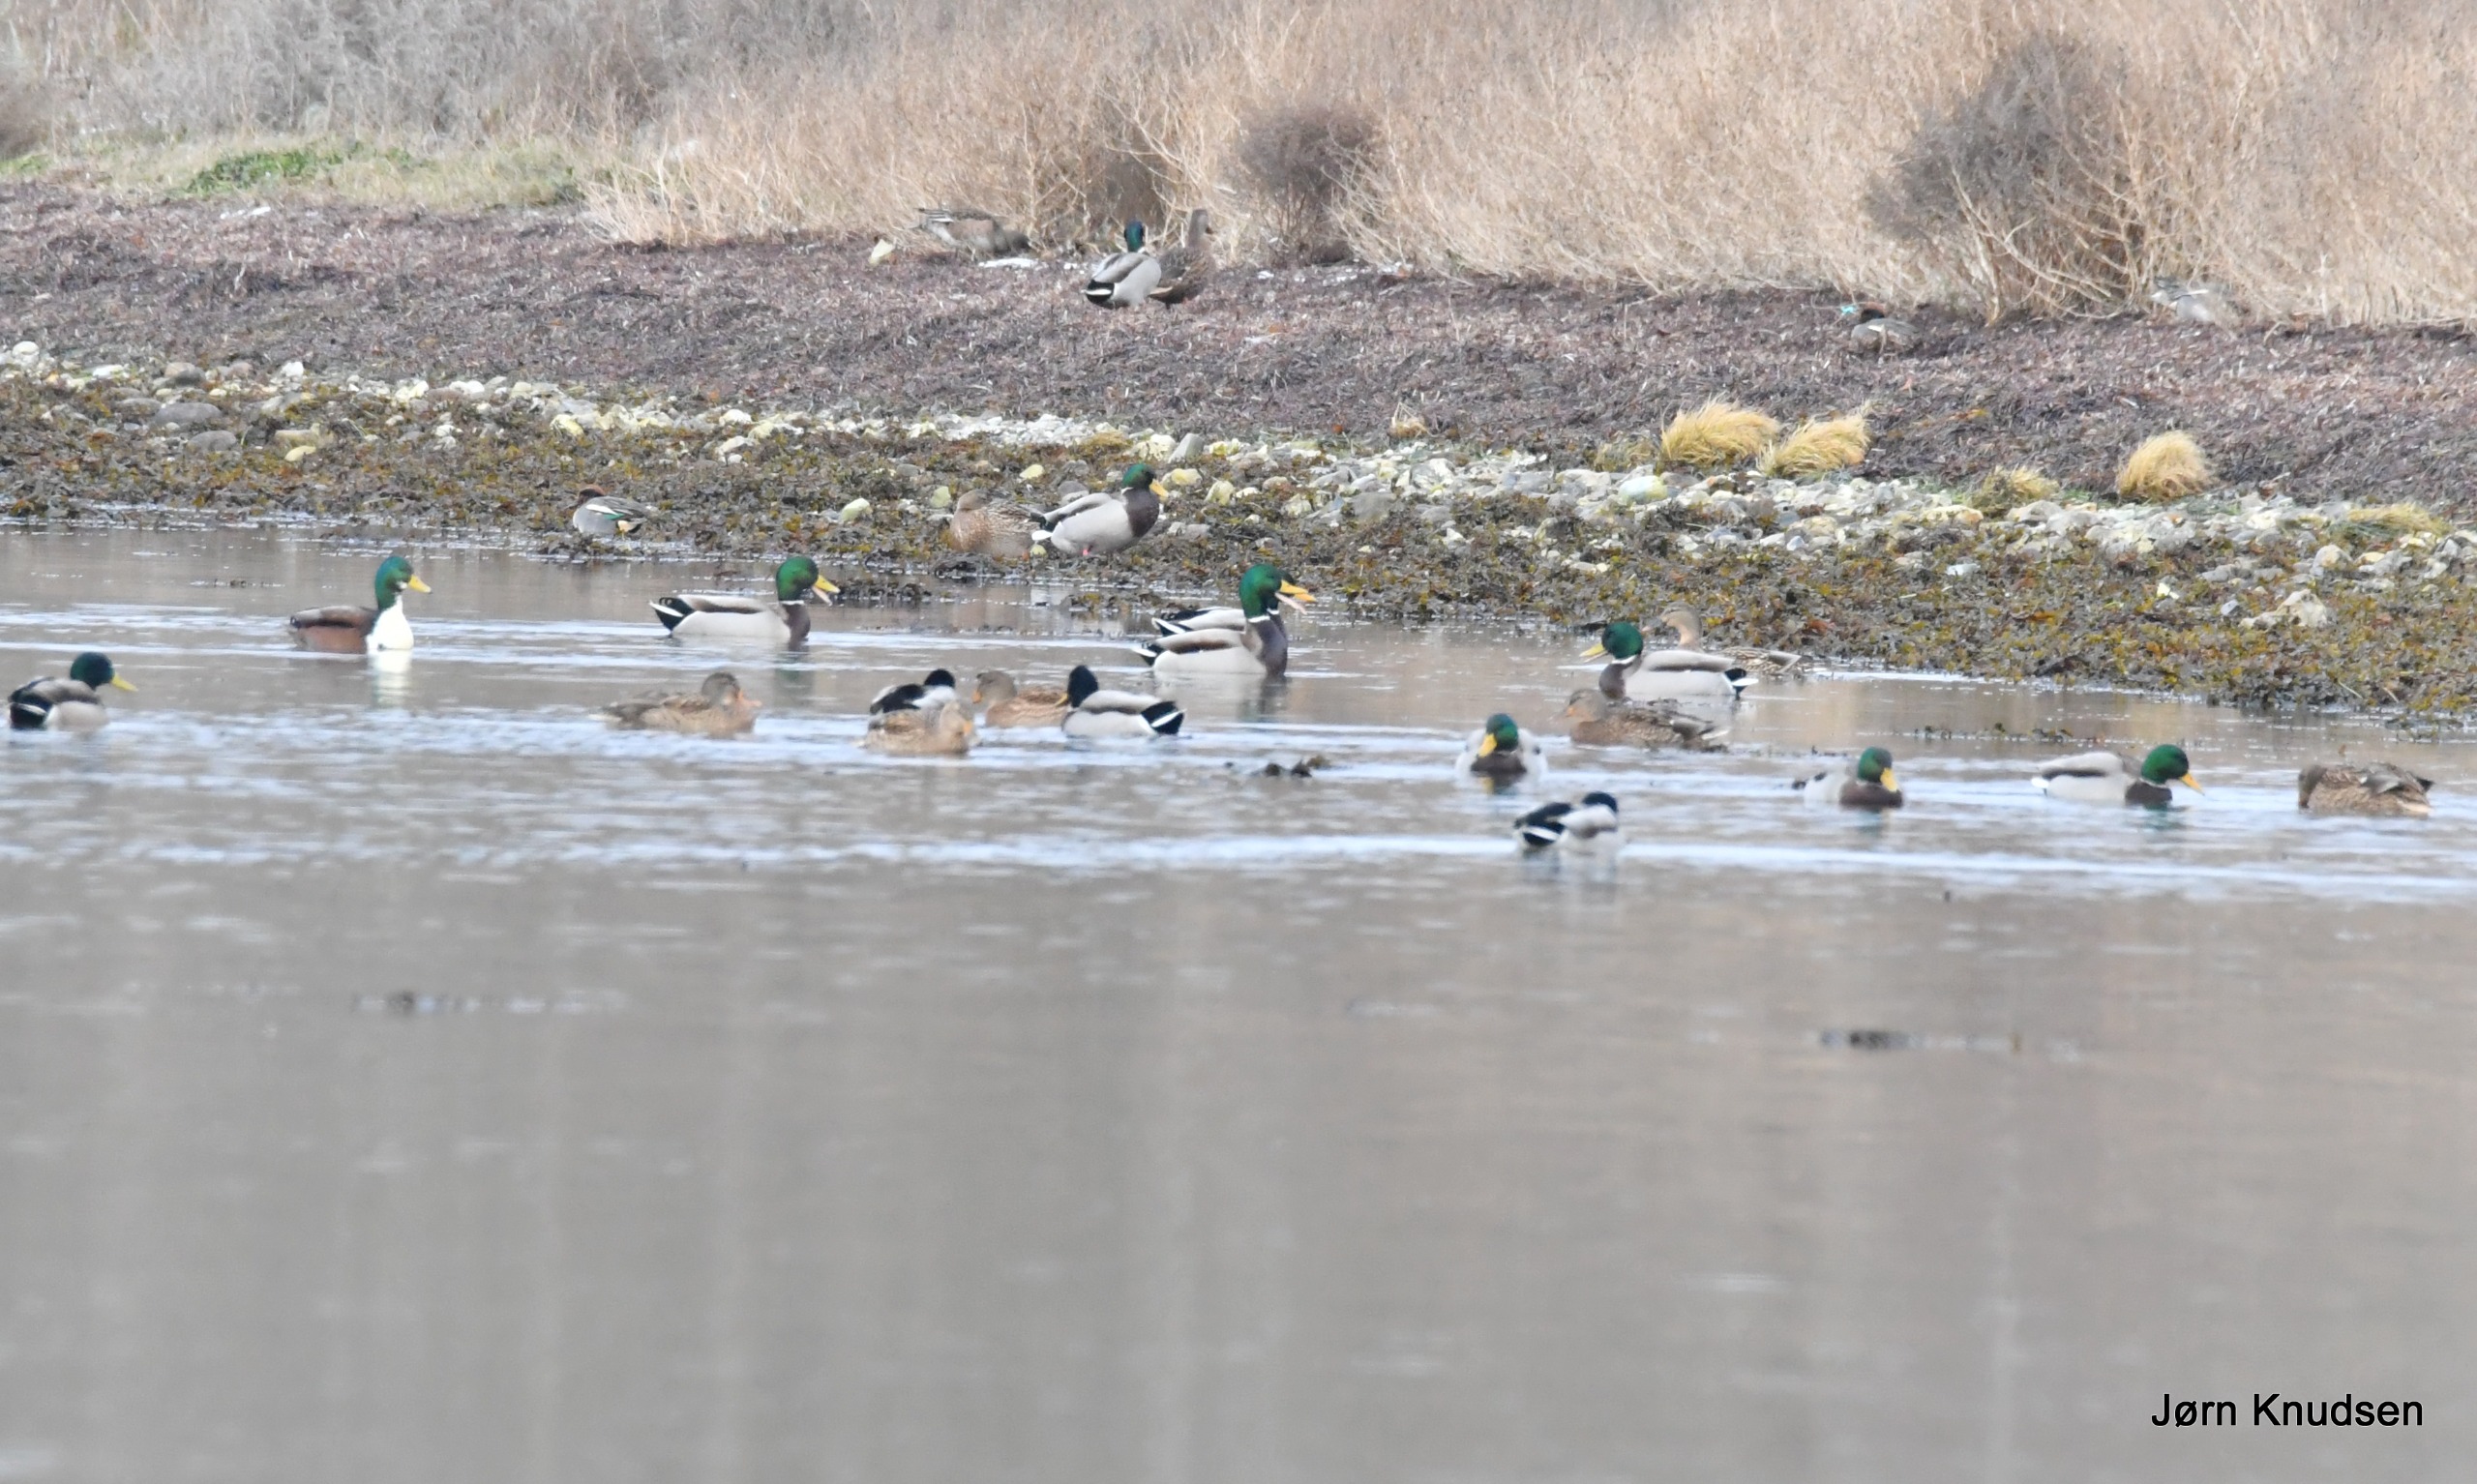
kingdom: Animalia
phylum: Chordata
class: Aves
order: Anseriformes
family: Anatidae
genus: Anas
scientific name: Anas crecca
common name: Krikand
